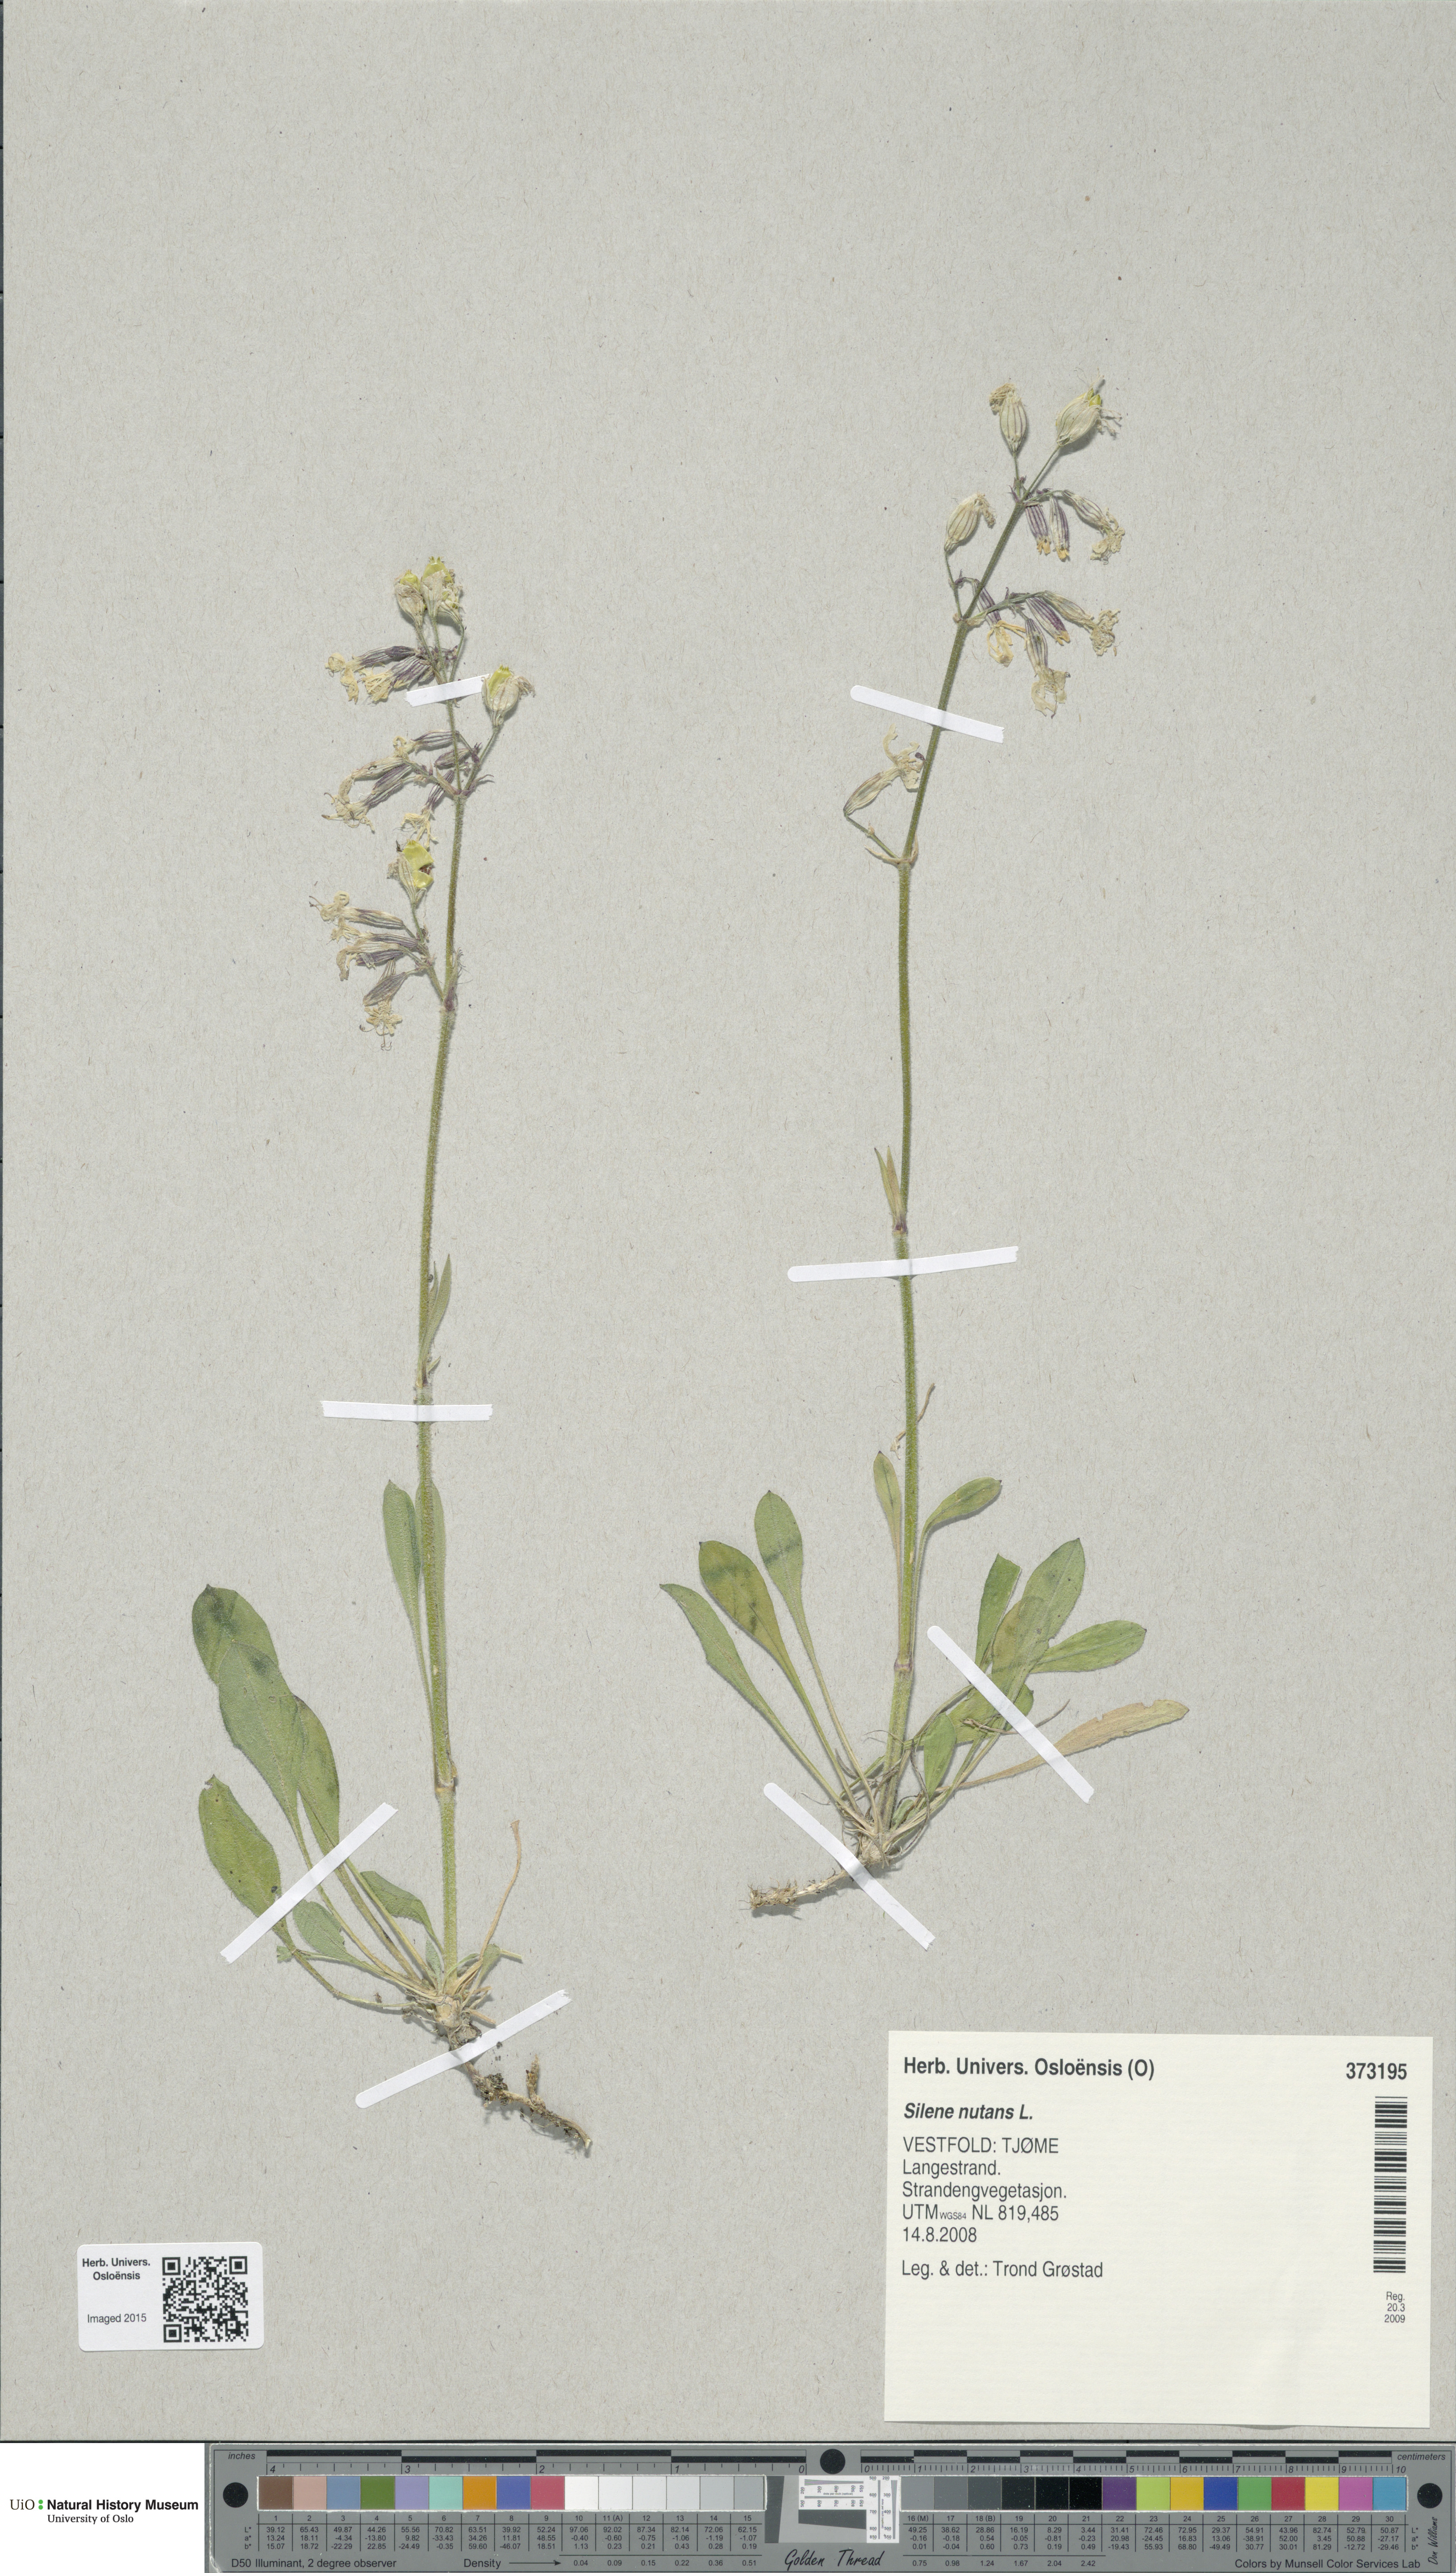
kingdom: Plantae
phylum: Tracheophyta
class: Magnoliopsida
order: Caryophyllales
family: Caryophyllaceae
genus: Silene
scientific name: Silene nutans
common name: Nottingham catchfly
